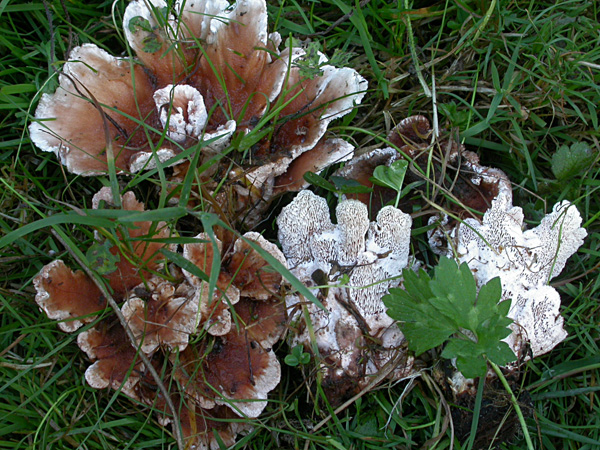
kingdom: Fungi
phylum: Basidiomycota
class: Agaricomycetes
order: Polyporales
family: Podoscyphaceae
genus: Abortiporus
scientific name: Abortiporus biennis
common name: rødmende pjalteporesvamp
